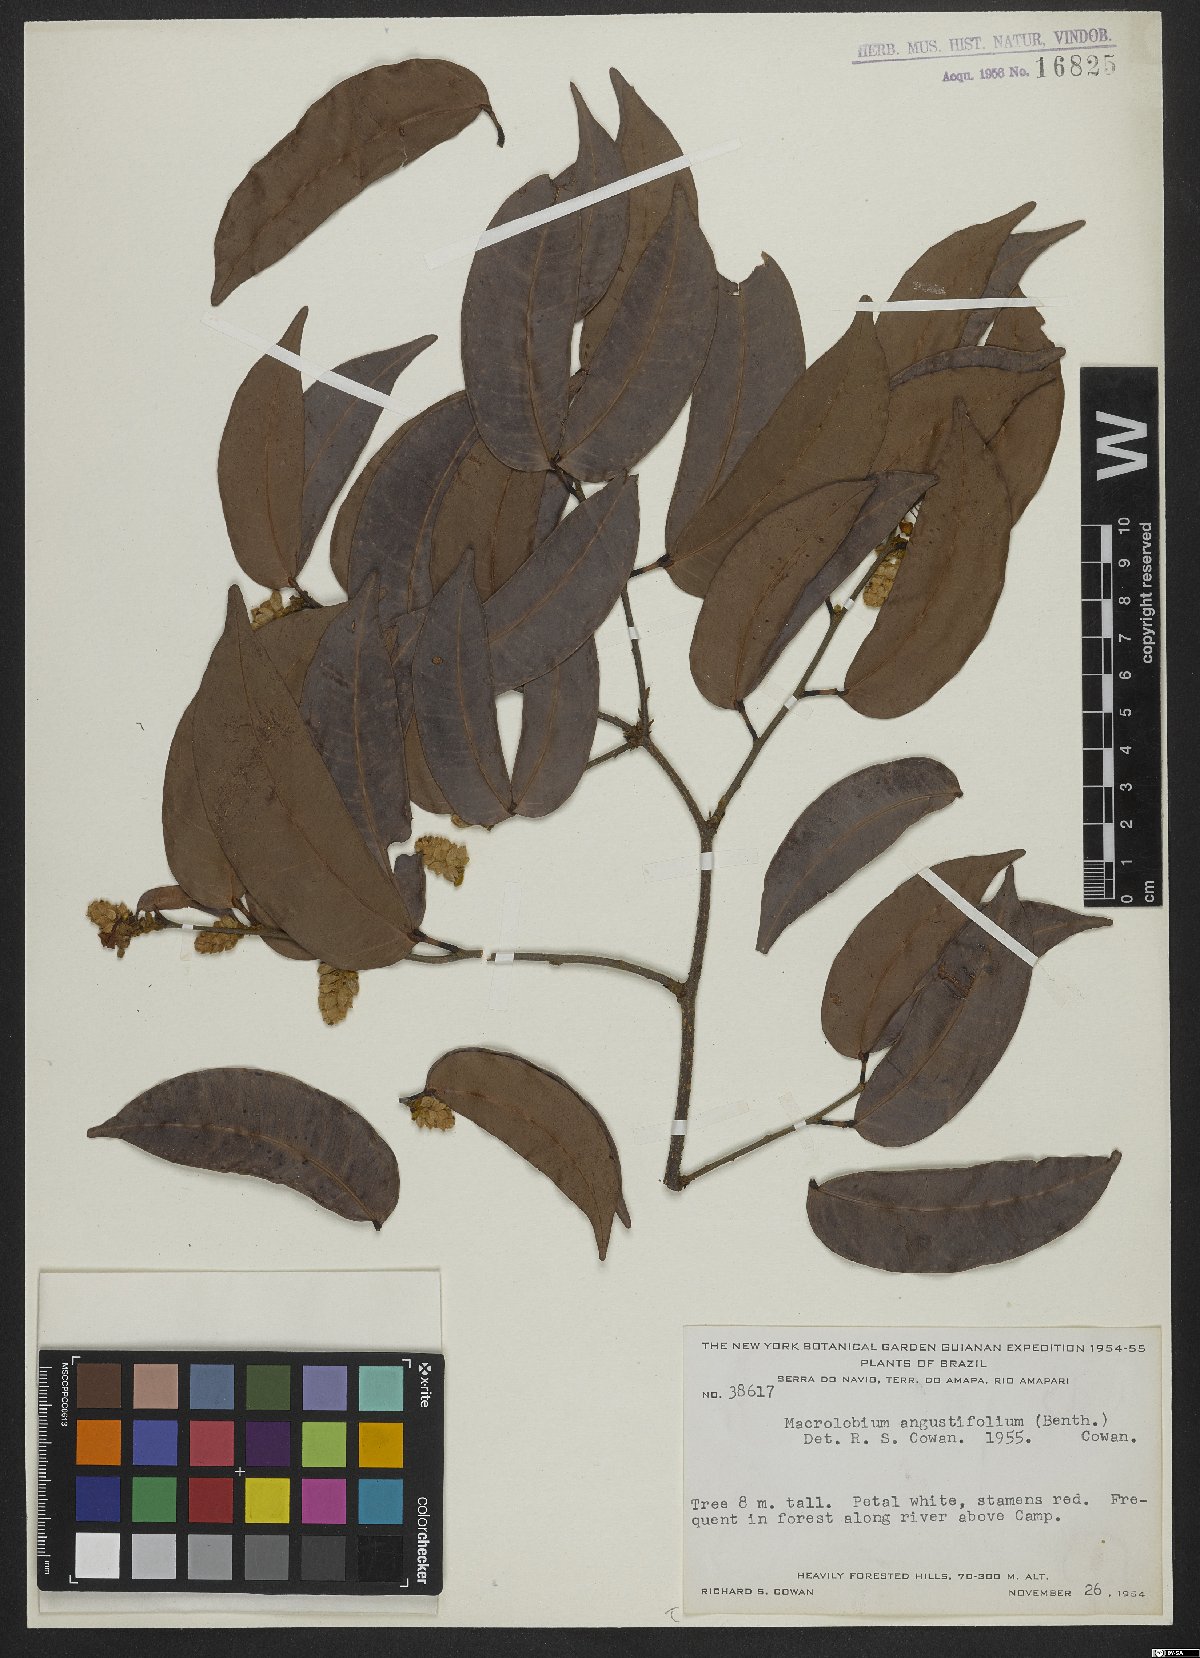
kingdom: Plantae
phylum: Tracheophyta
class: Magnoliopsida
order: Fabales
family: Fabaceae
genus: Macrolobium
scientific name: Macrolobium angustifolium
